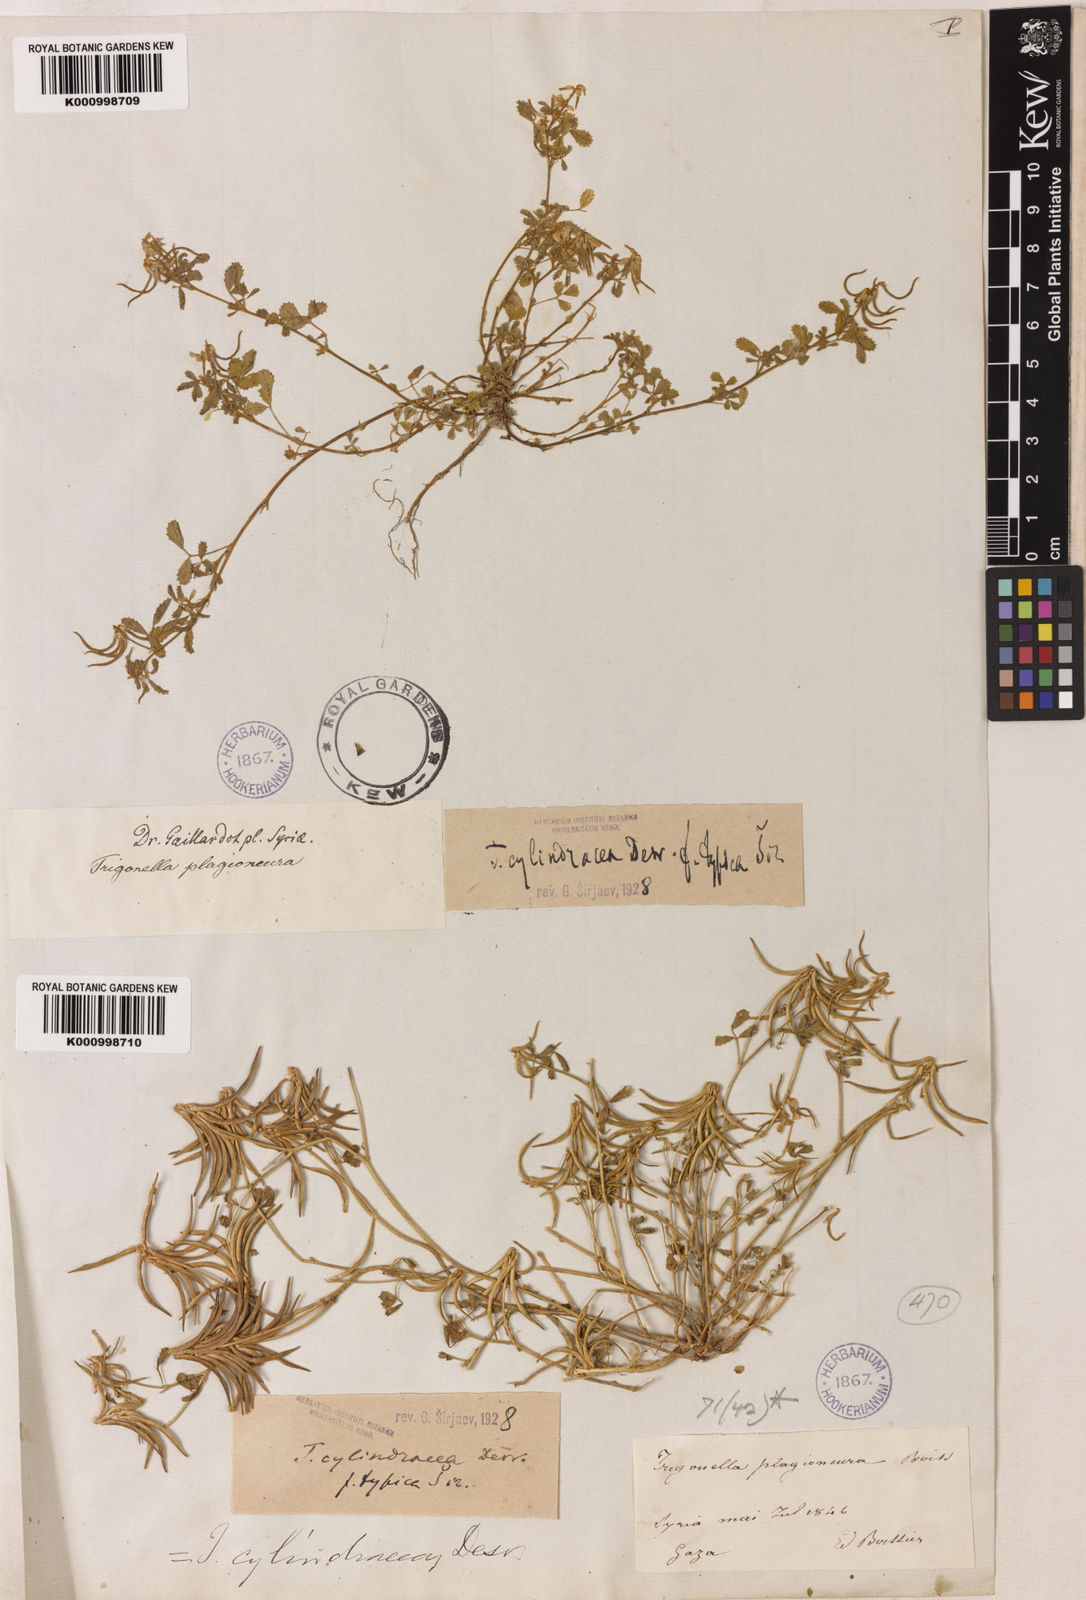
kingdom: Plantae
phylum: Tracheophyta
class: Magnoliopsida
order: Fabales
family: Fabaceae
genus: Trigonella
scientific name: Trigonella cylindracea
